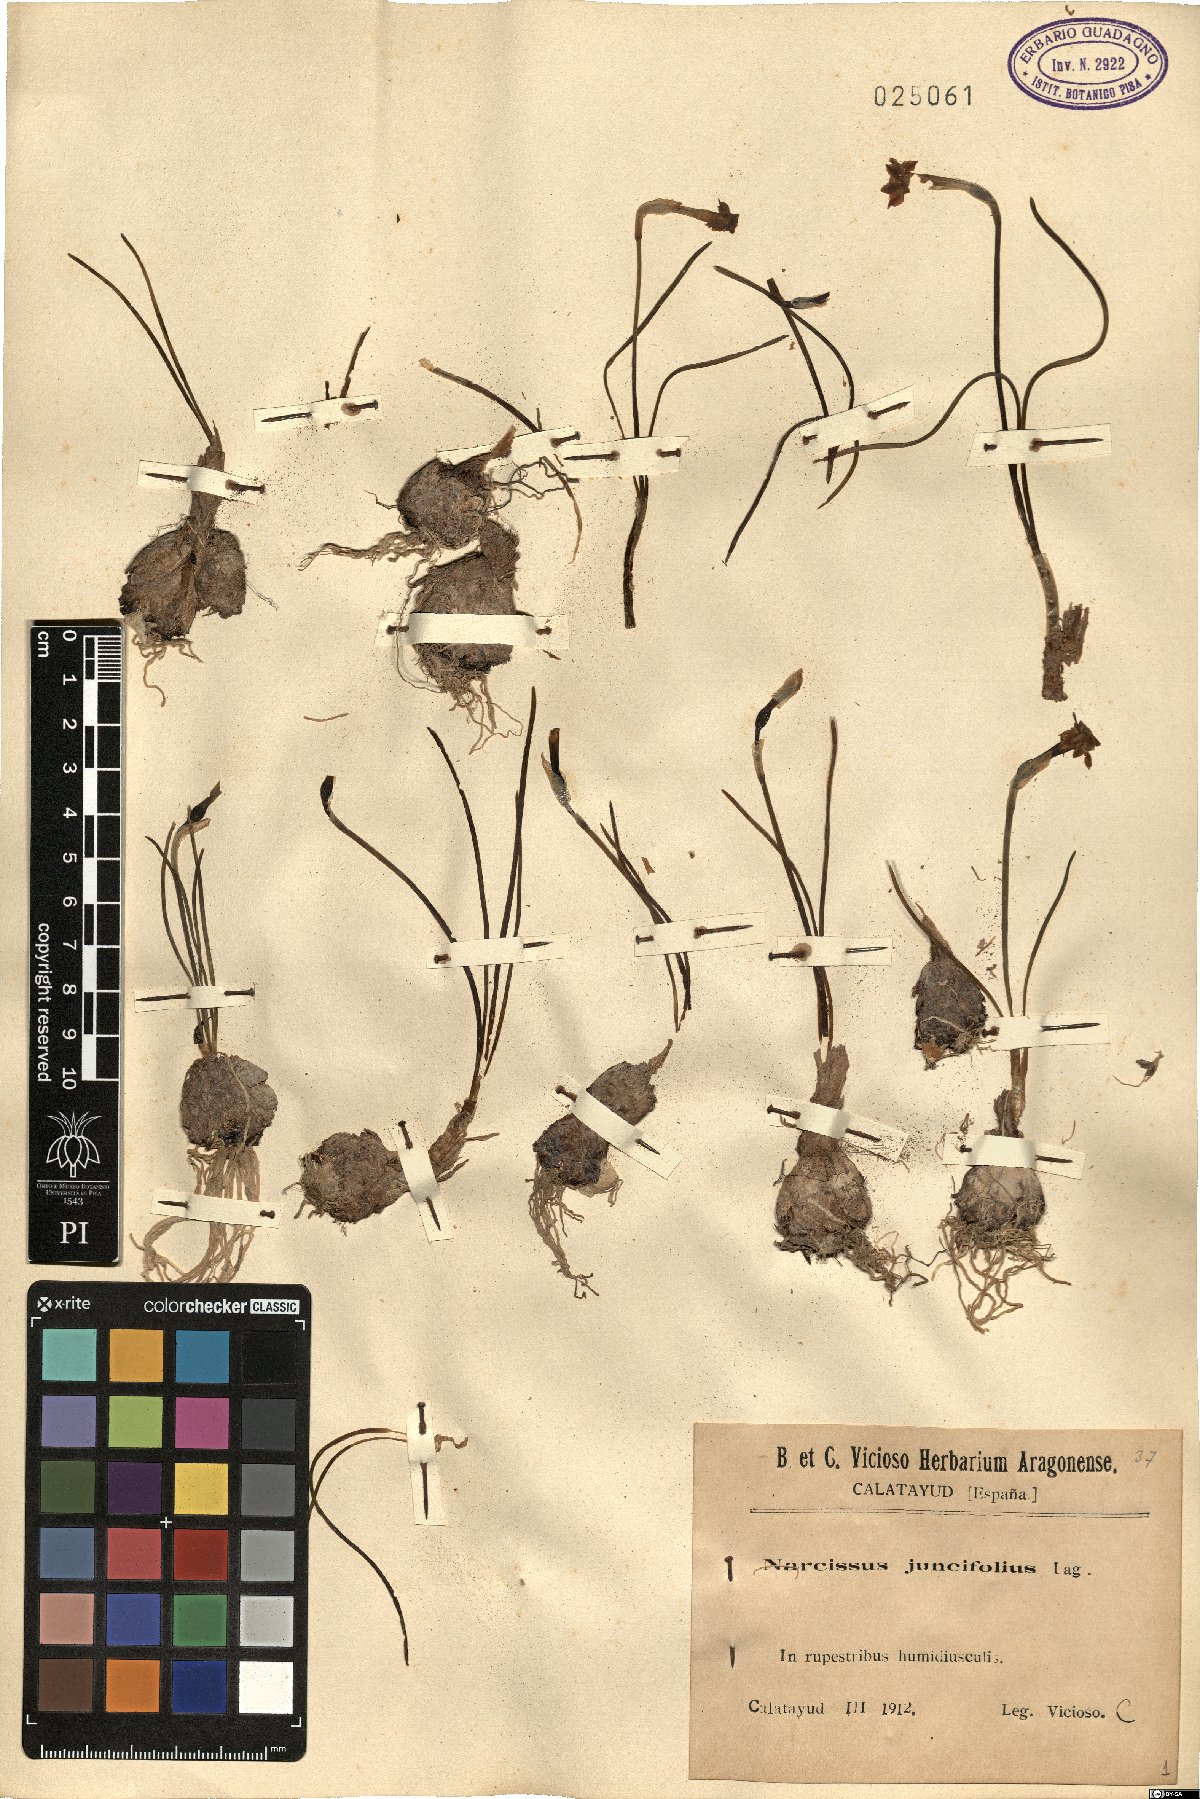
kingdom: Plantae
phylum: Tracheophyta
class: Liliopsida
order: Asparagales
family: Amaryllidaceae
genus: Narcissus
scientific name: Narcissus assoanus
